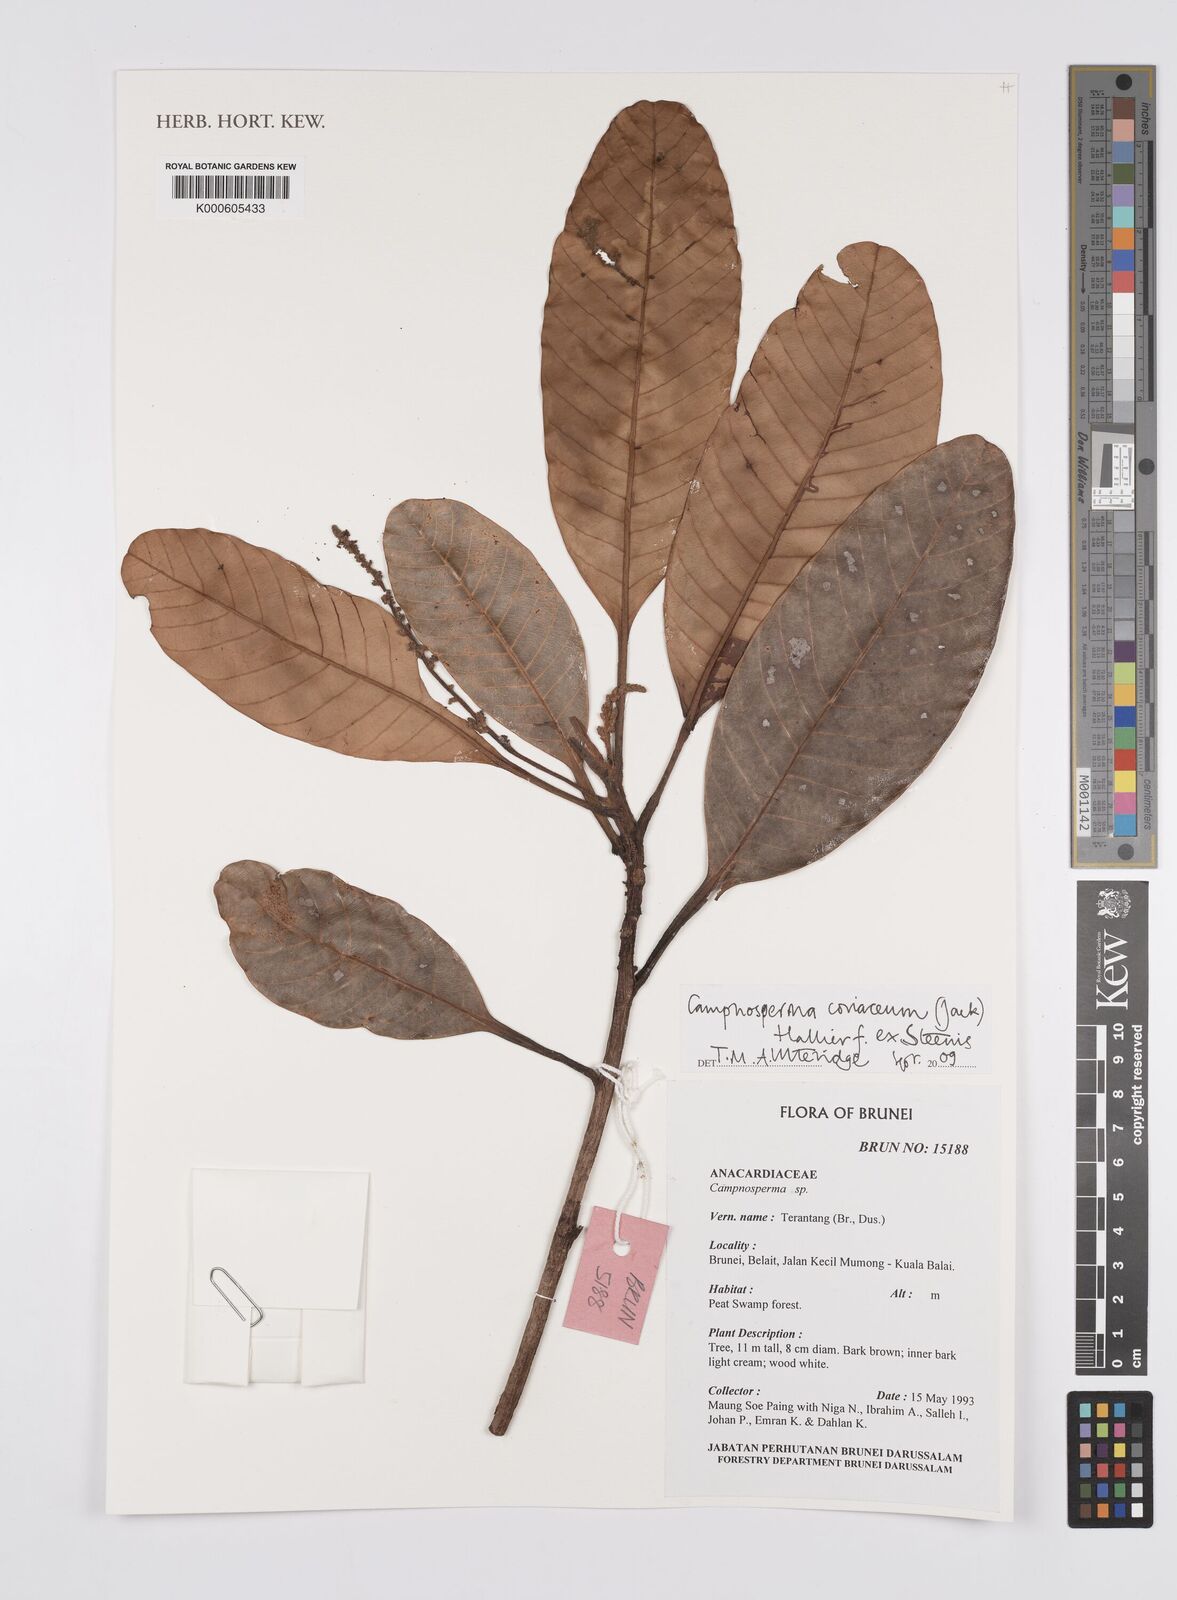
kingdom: Plantae
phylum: Tracheophyta
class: Magnoliopsida
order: Sapindales
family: Anacardiaceae
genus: Campnosperma
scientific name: Campnosperma
